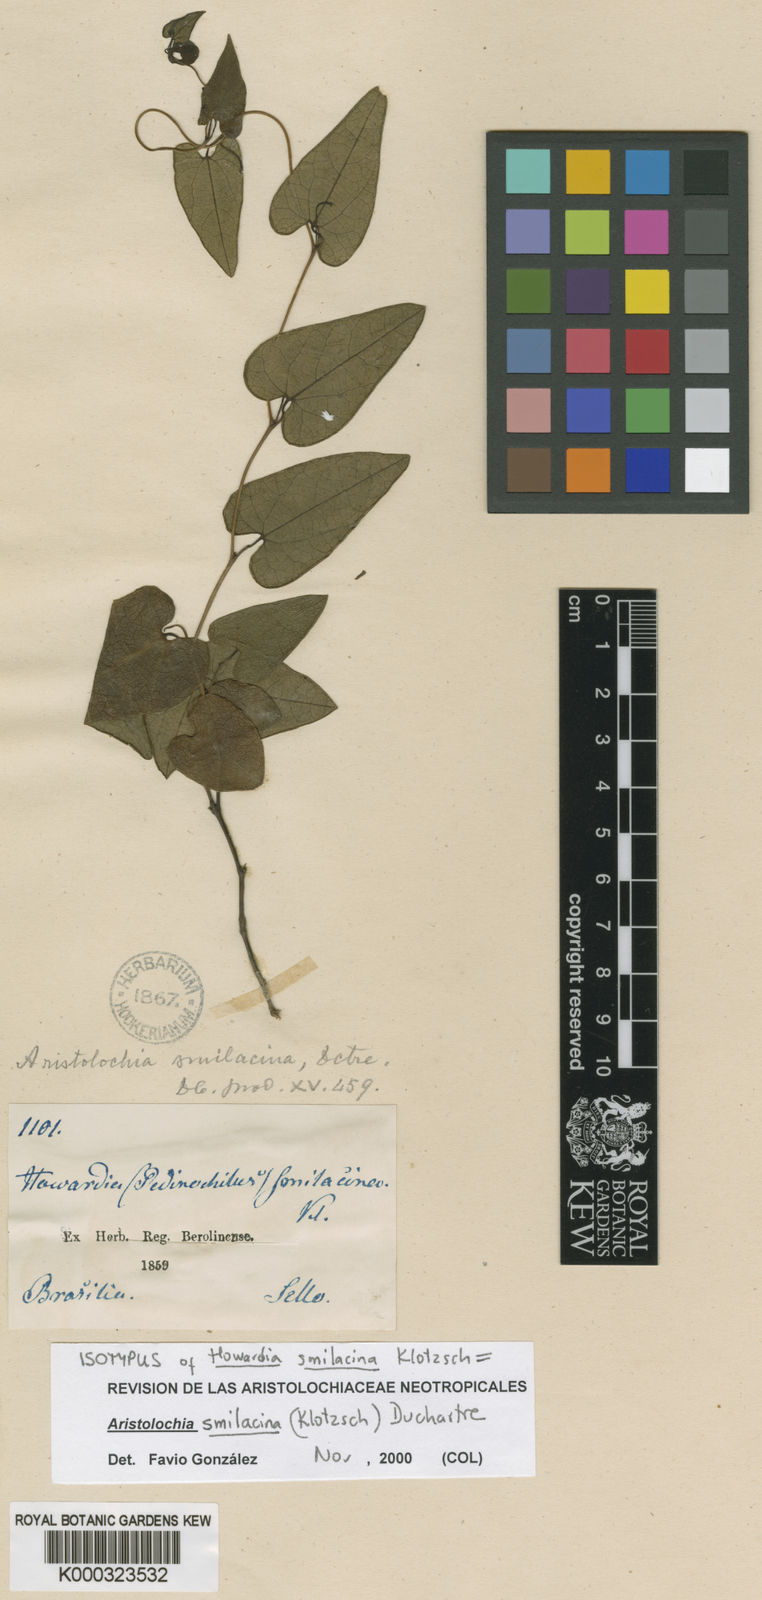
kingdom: Plantae
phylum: Tracheophyta
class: Magnoliopsida
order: Piperales
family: Aristolochiaceae
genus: Aristolochia
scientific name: Aristolochia smilacina
